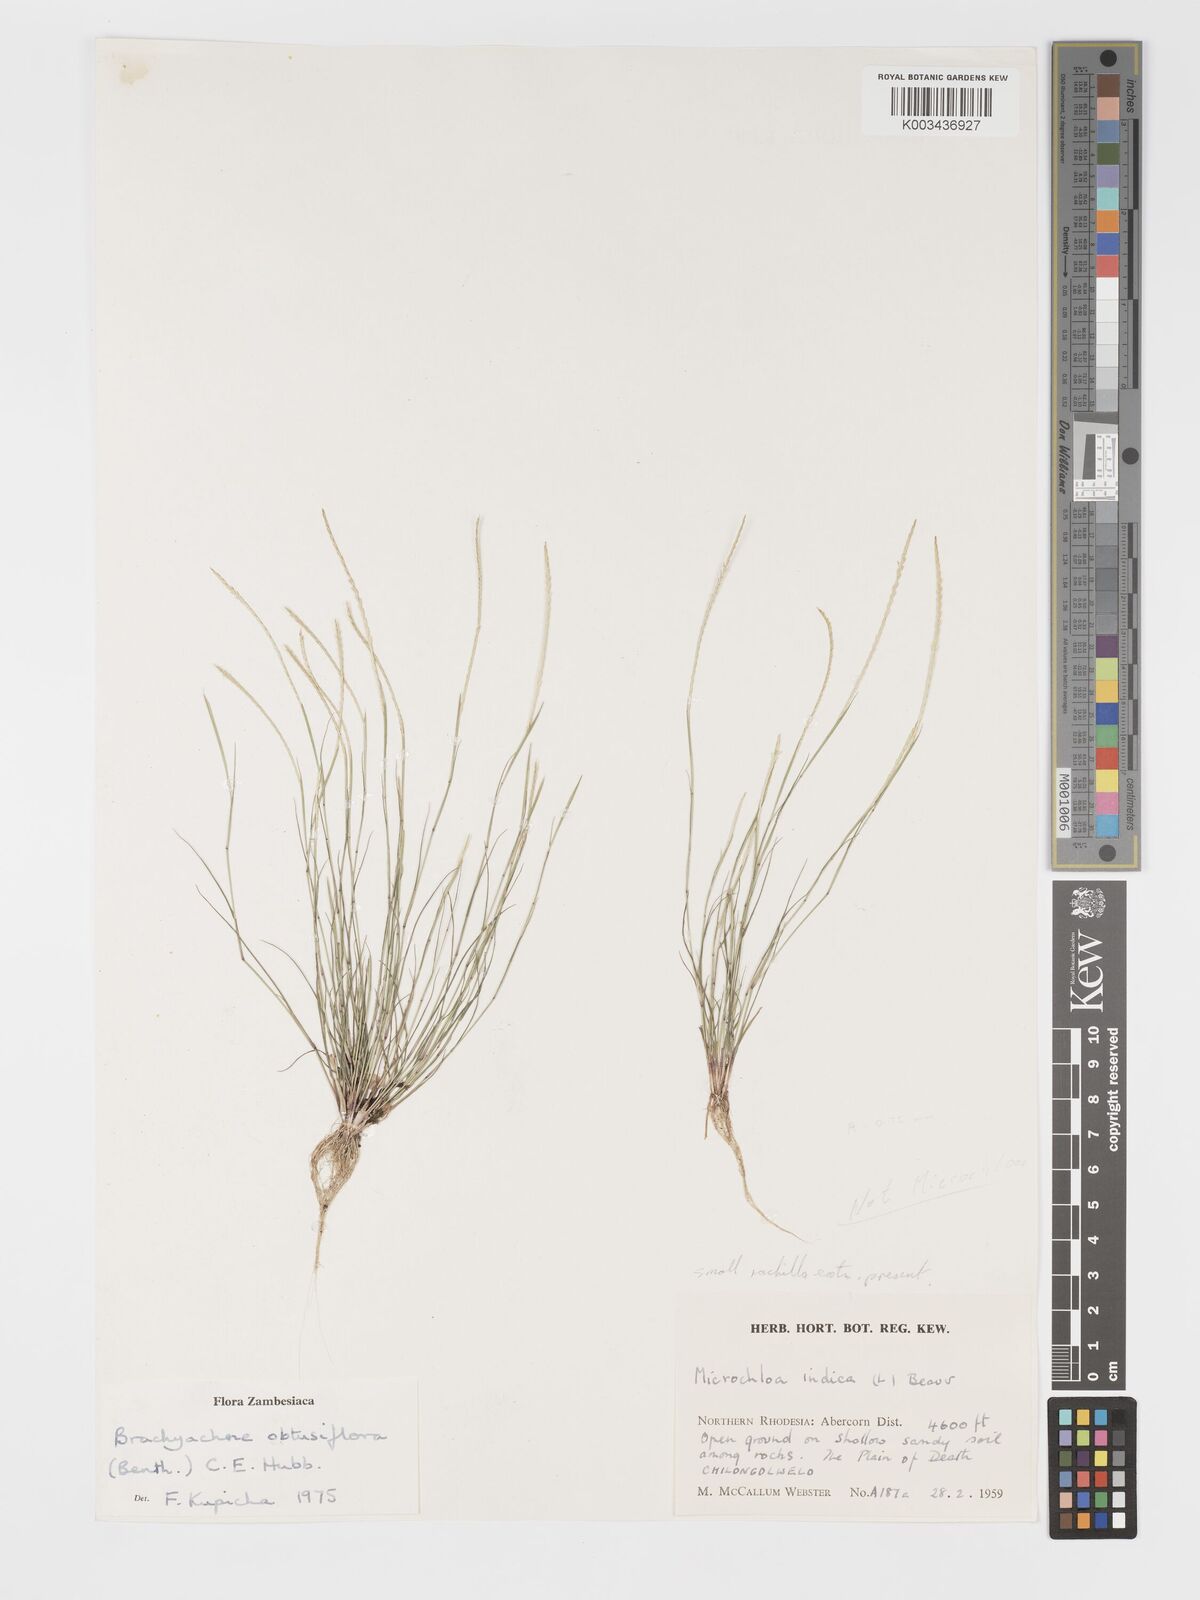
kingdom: Plantae
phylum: Tracheophyta
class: Liliopsida
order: Poales
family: Poaceae
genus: Micrachne
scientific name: Micrachne obtusiflora
